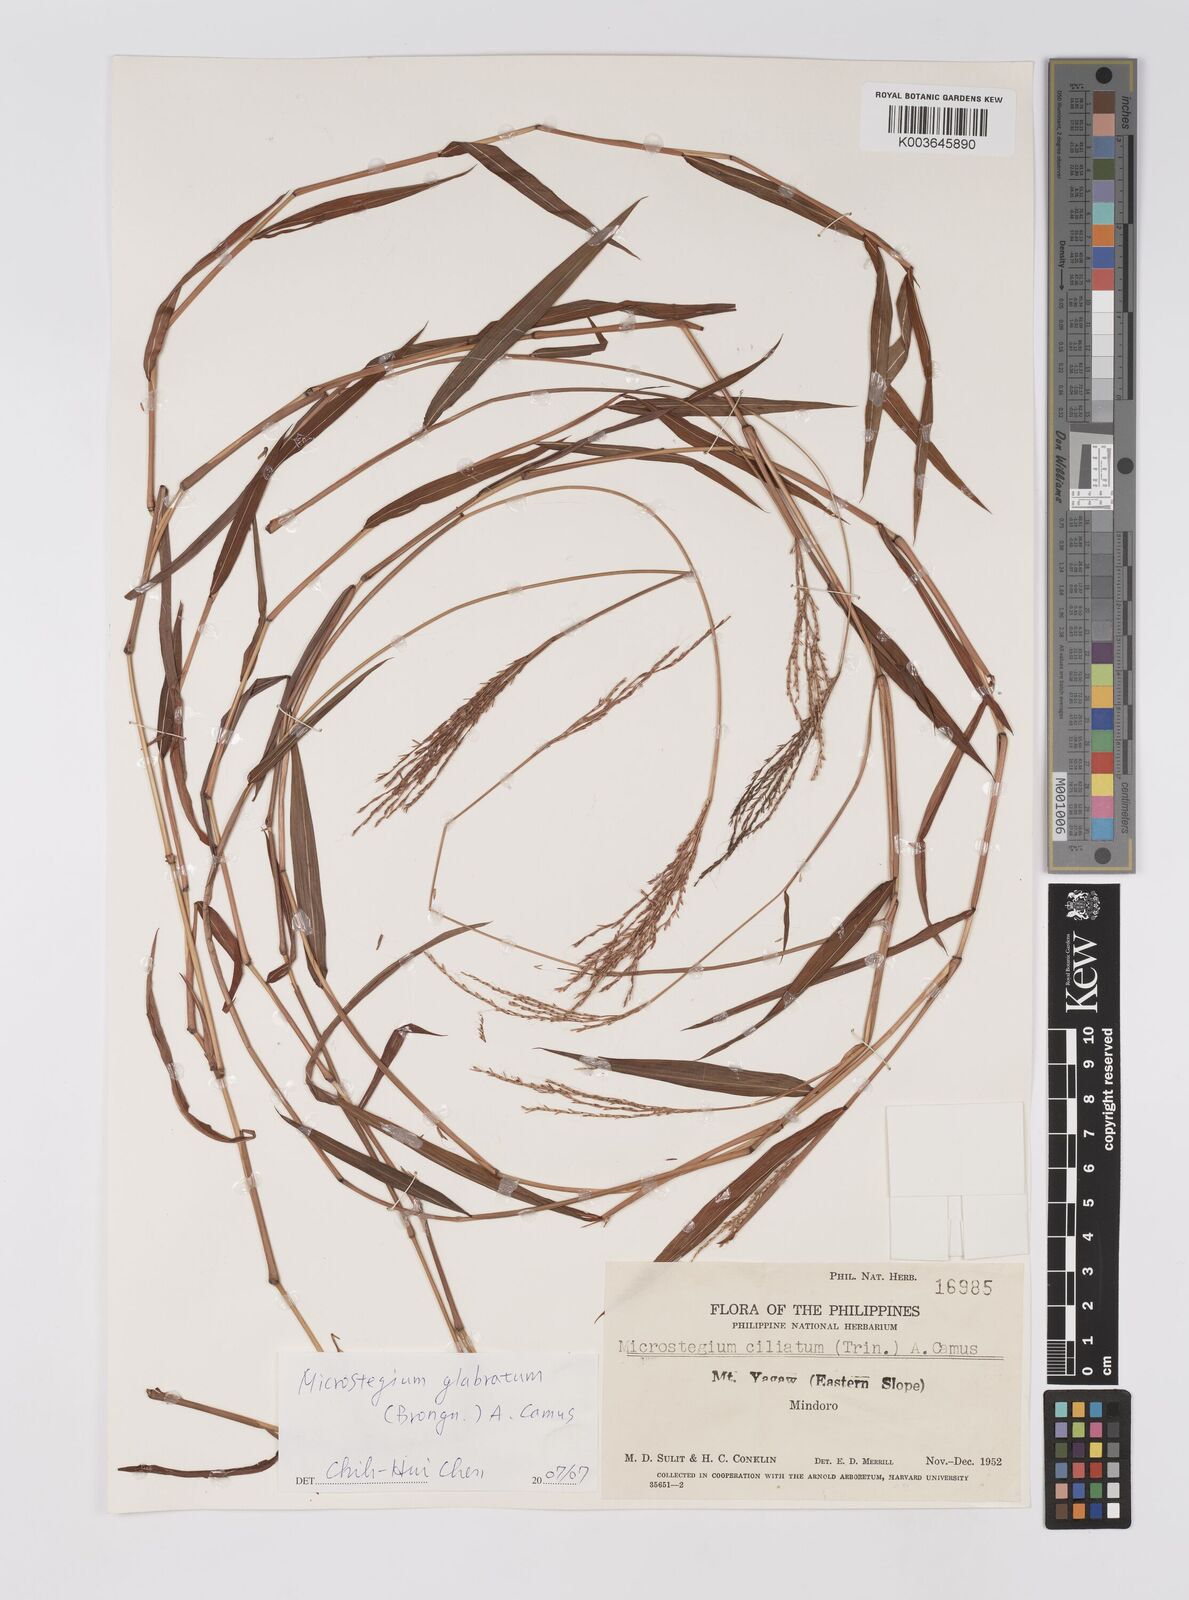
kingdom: Plantae
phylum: Tracheophyta
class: Liliopsida
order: Poales
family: Poaceae
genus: Microstegium
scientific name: Microstegium glabratum
